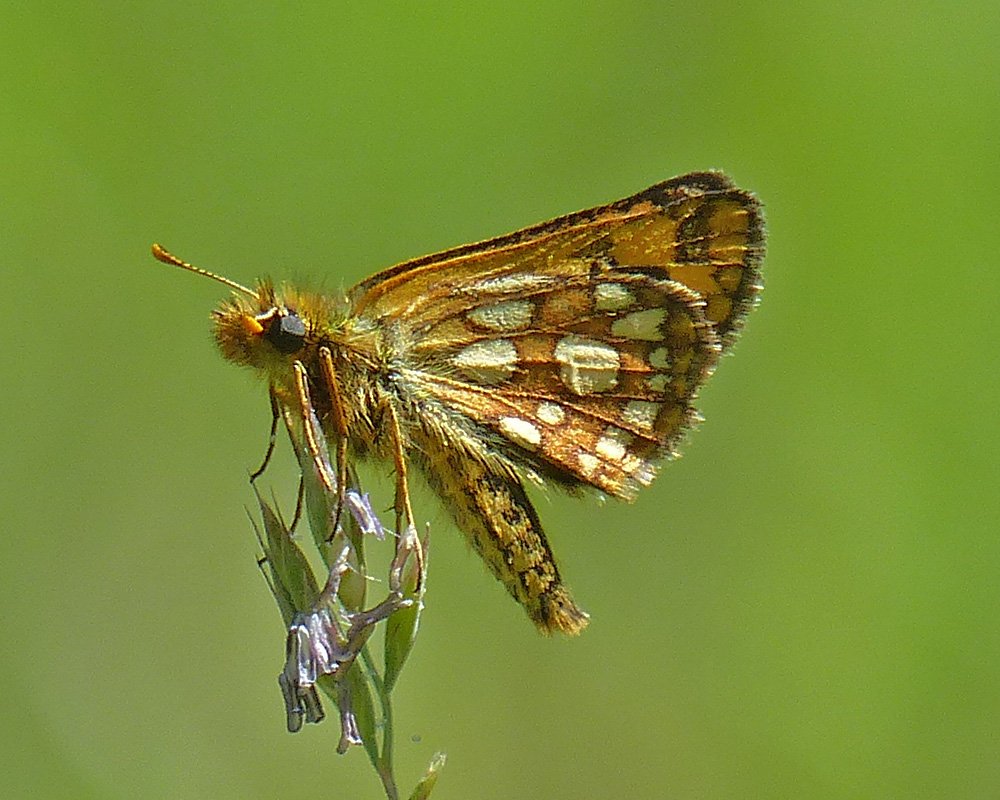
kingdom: Animalia
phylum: Arthropoda
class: Insecta
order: Lepidoptera
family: Hesperiidae
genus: Carterocephalus
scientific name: Carterocephalus palaemon
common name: Chequered Skipper
